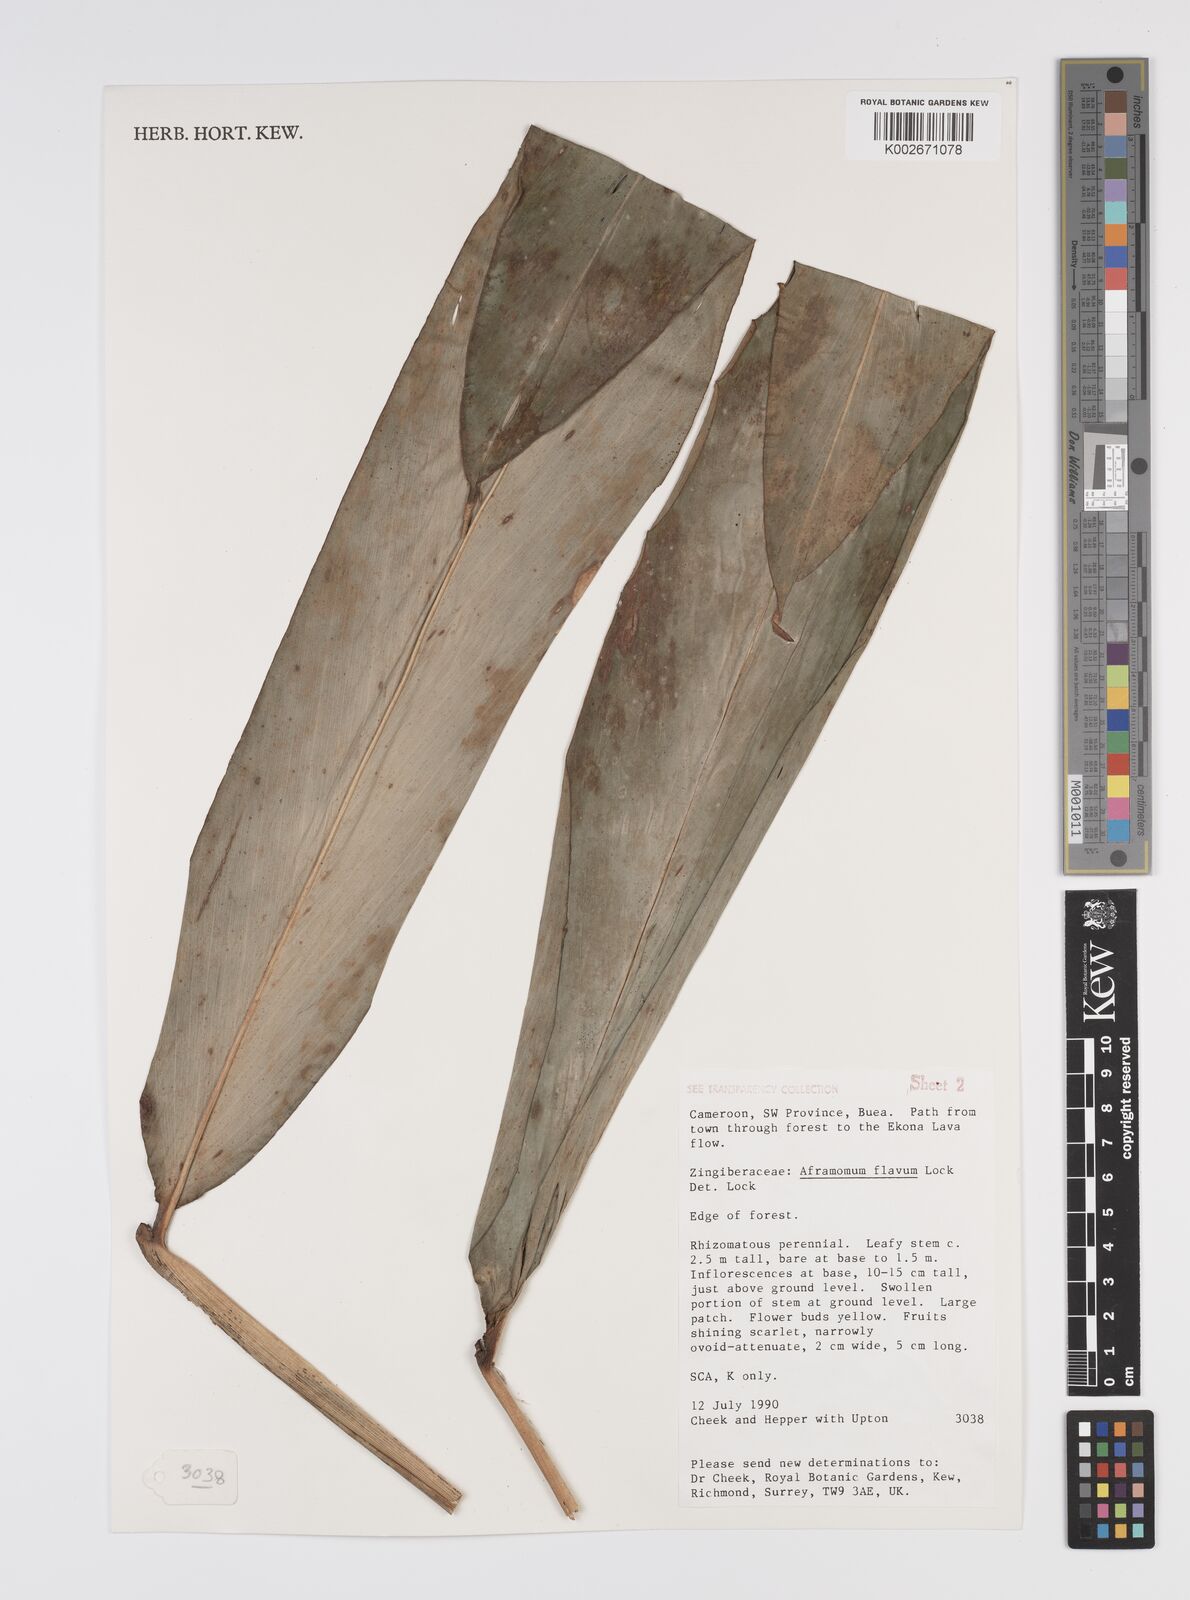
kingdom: Plantae
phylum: Tracheophyta
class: Liliopsida
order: Zingiberales
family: Zingiberaceae
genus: Aframomum
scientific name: Aframomum daniellii
